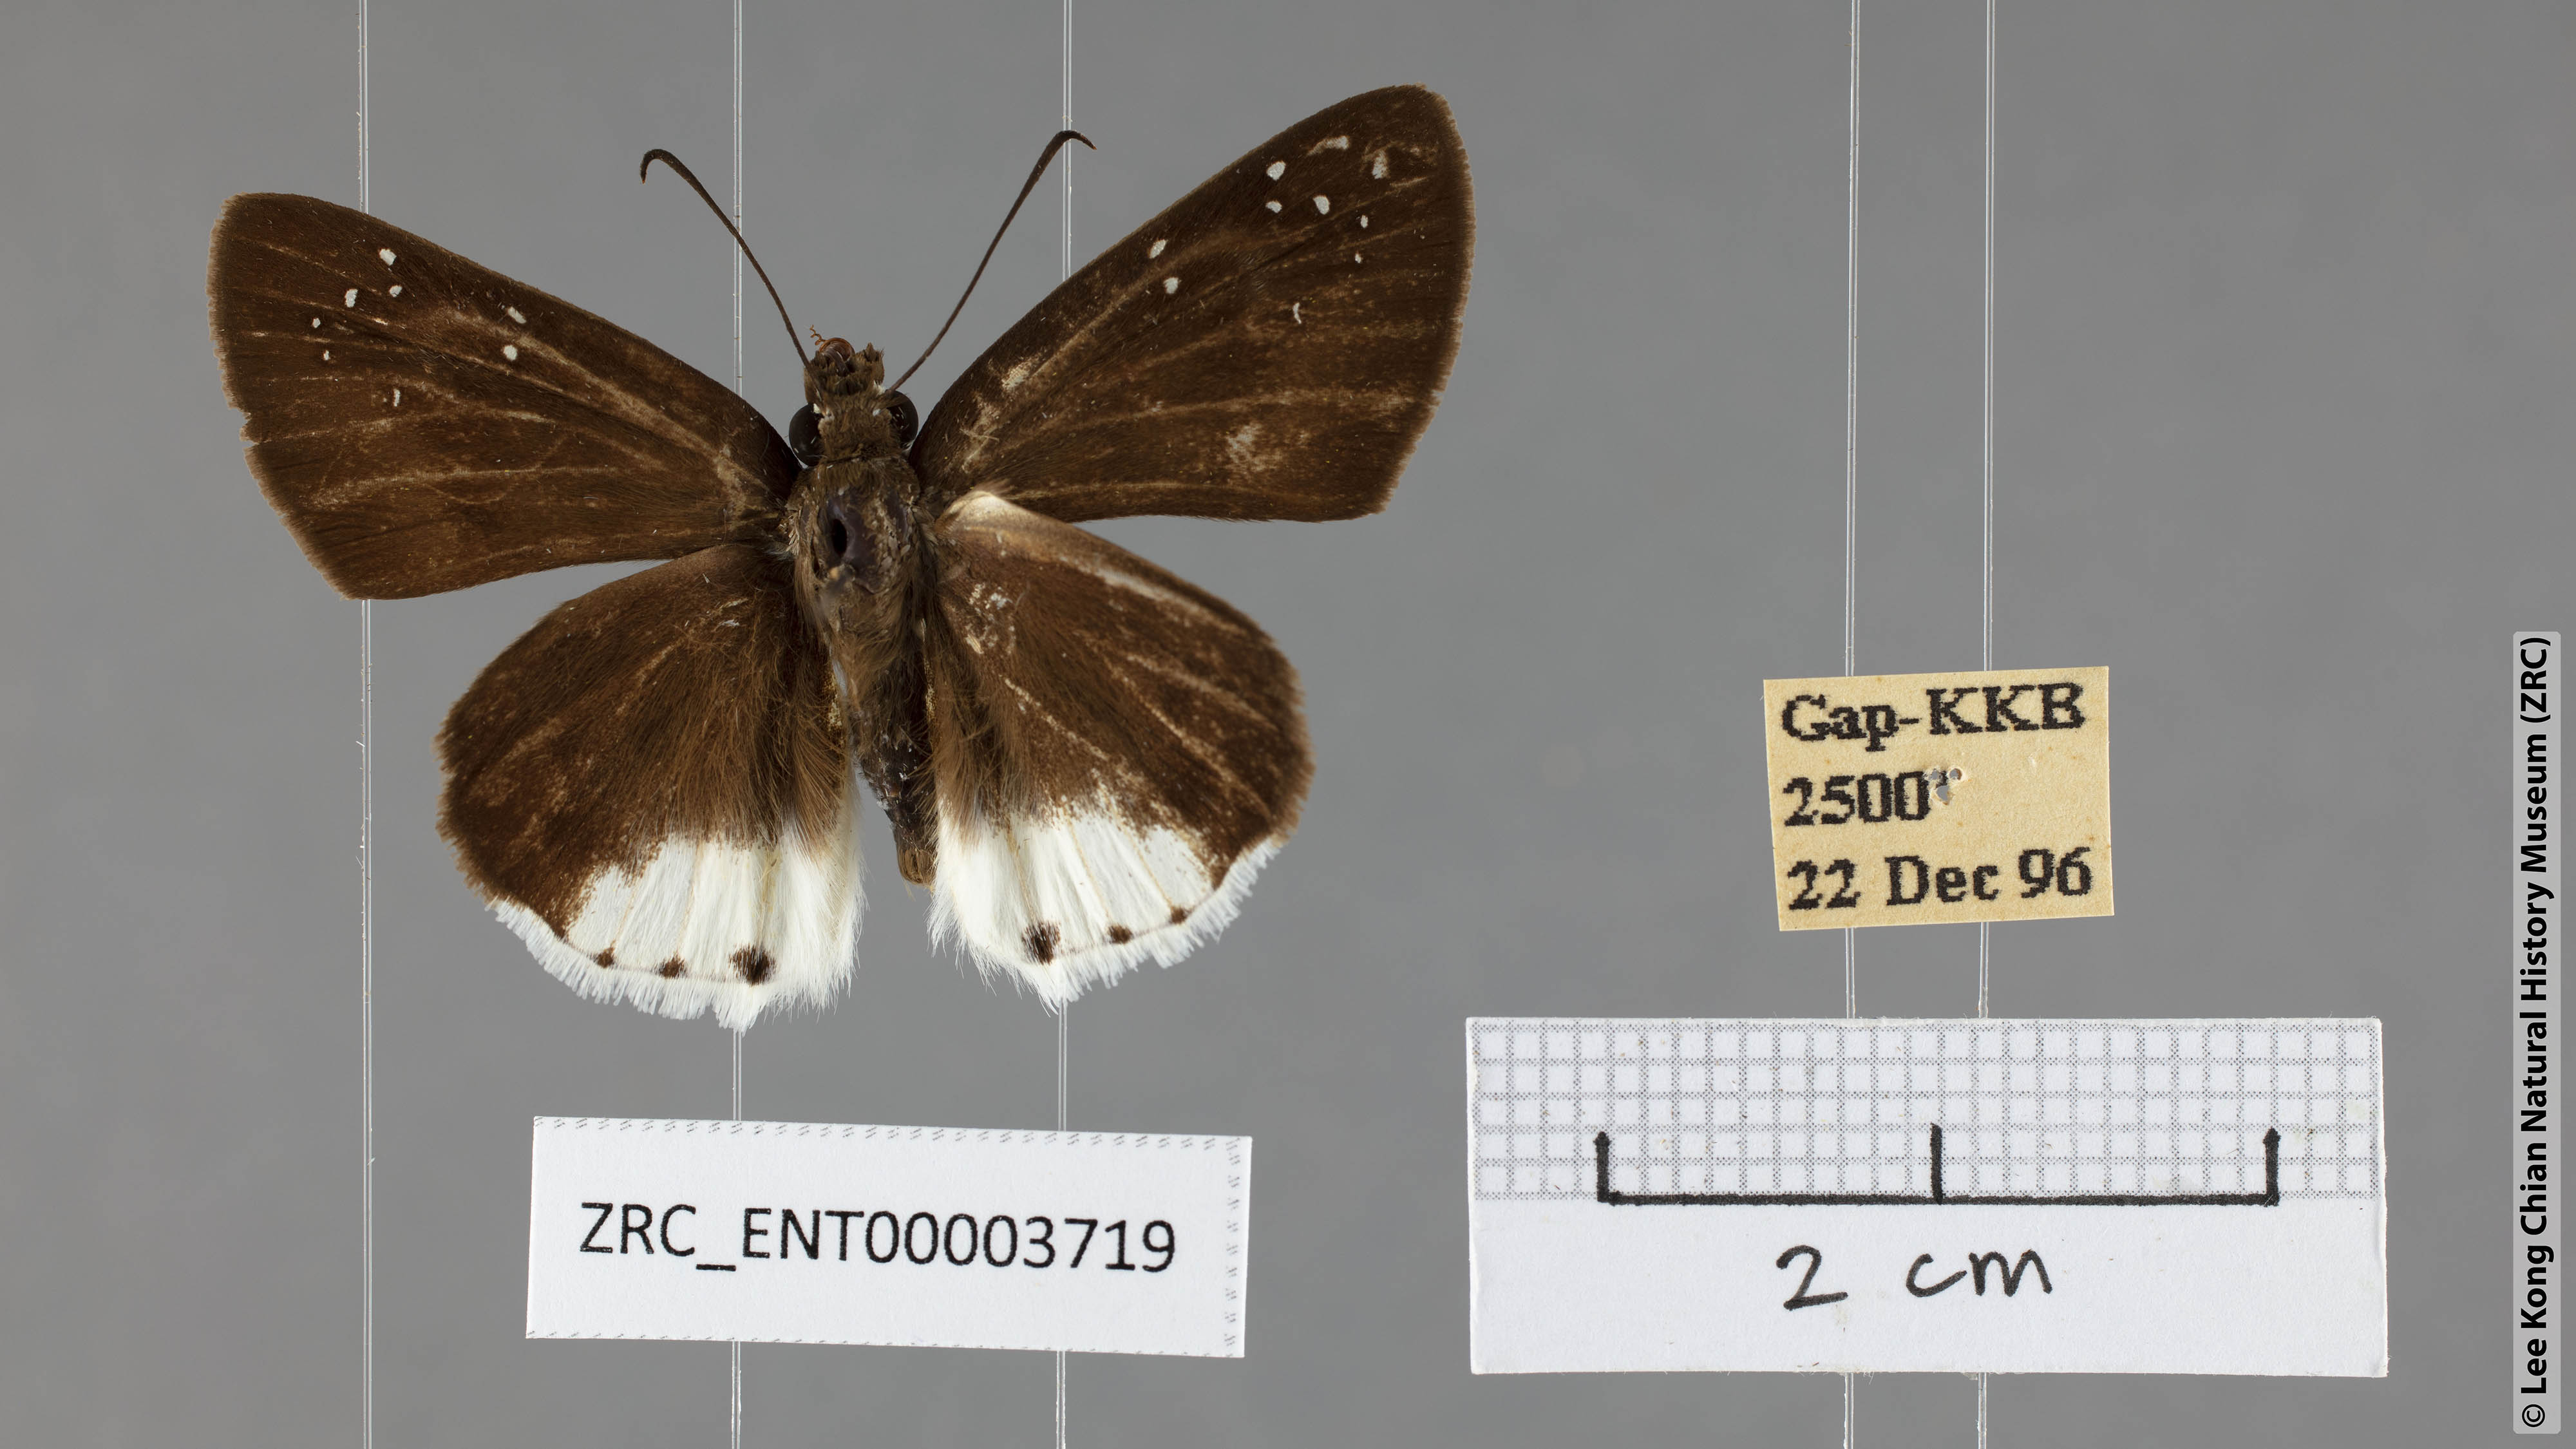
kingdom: Animalia
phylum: Arthropoda
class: Insecta
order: Lepidoptera
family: Hesperiidae
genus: Tagiades
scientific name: Tagiades toba
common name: Different-spotted snow flat
